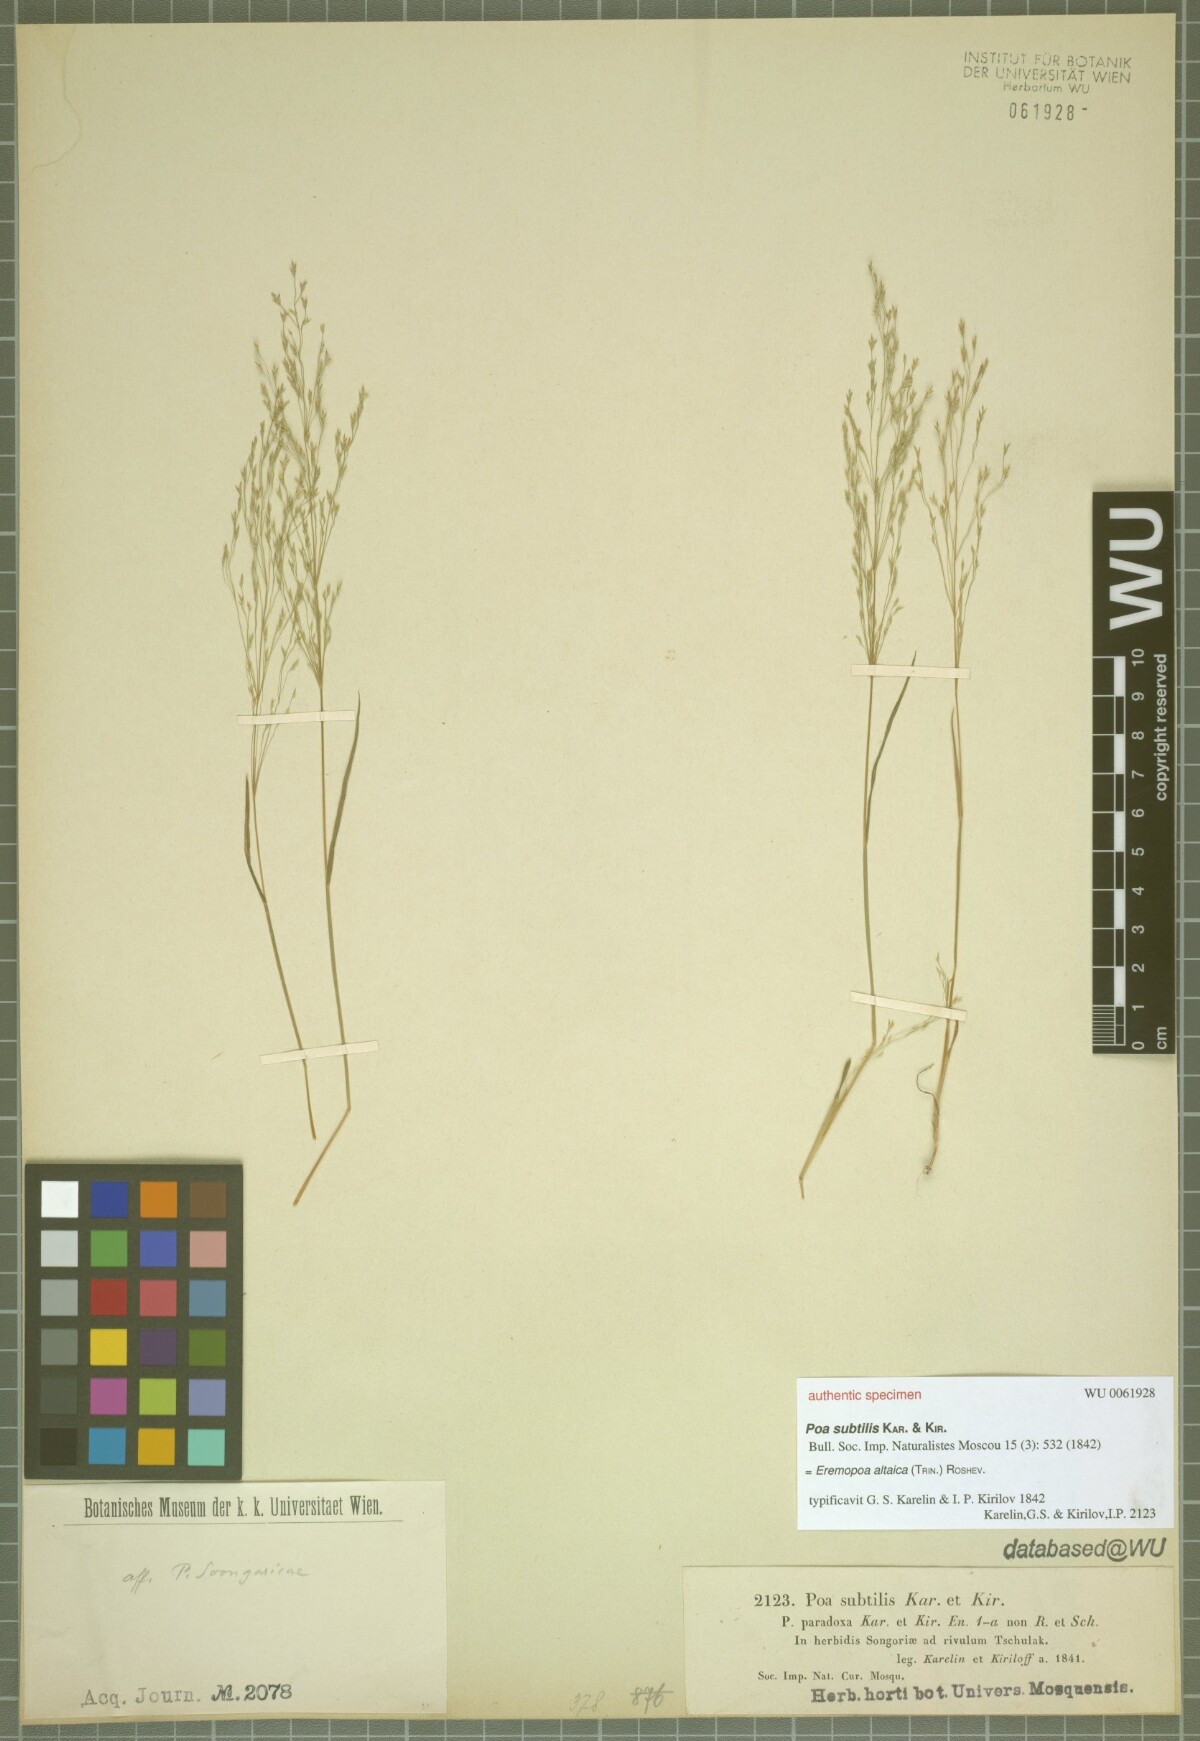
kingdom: Plantae
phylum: Tracheophyta
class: Liliopsida
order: Poales
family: Poaceae
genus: Poa
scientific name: Poa diaphora
